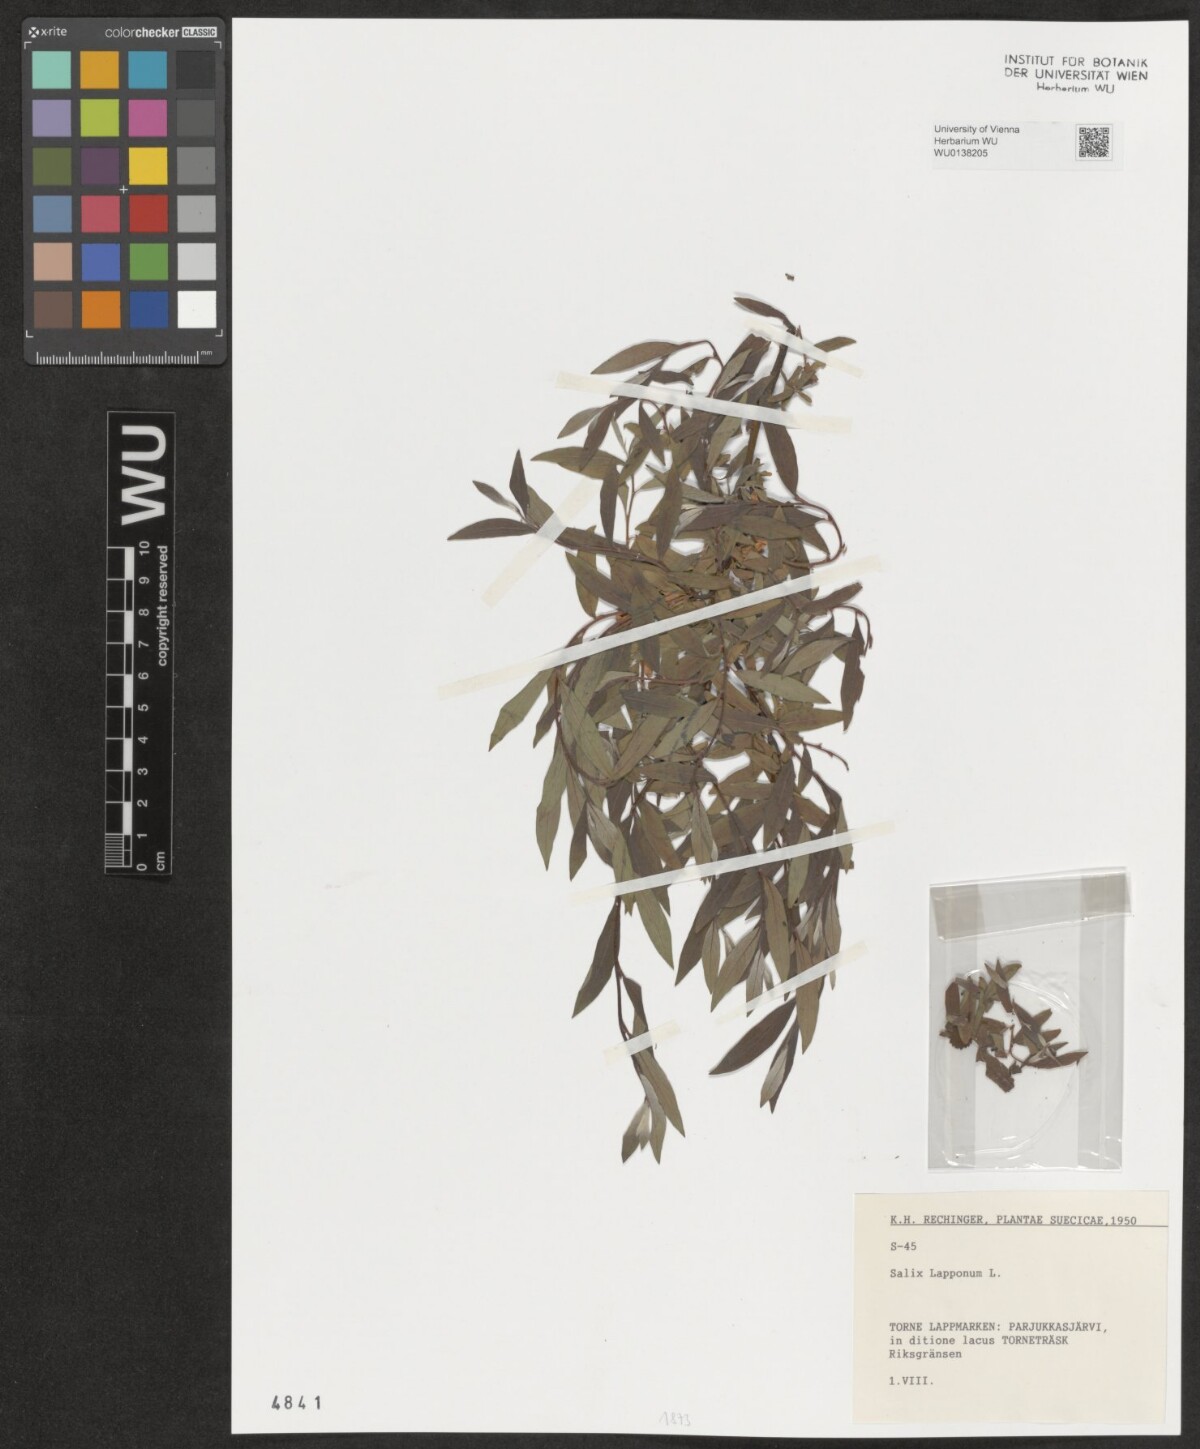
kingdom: Plantae
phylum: Tracheophyta
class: Magnoliopsida
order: Malpighiales
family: Salicaceae
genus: Salix
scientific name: Salix lapponum
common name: Downy willow
